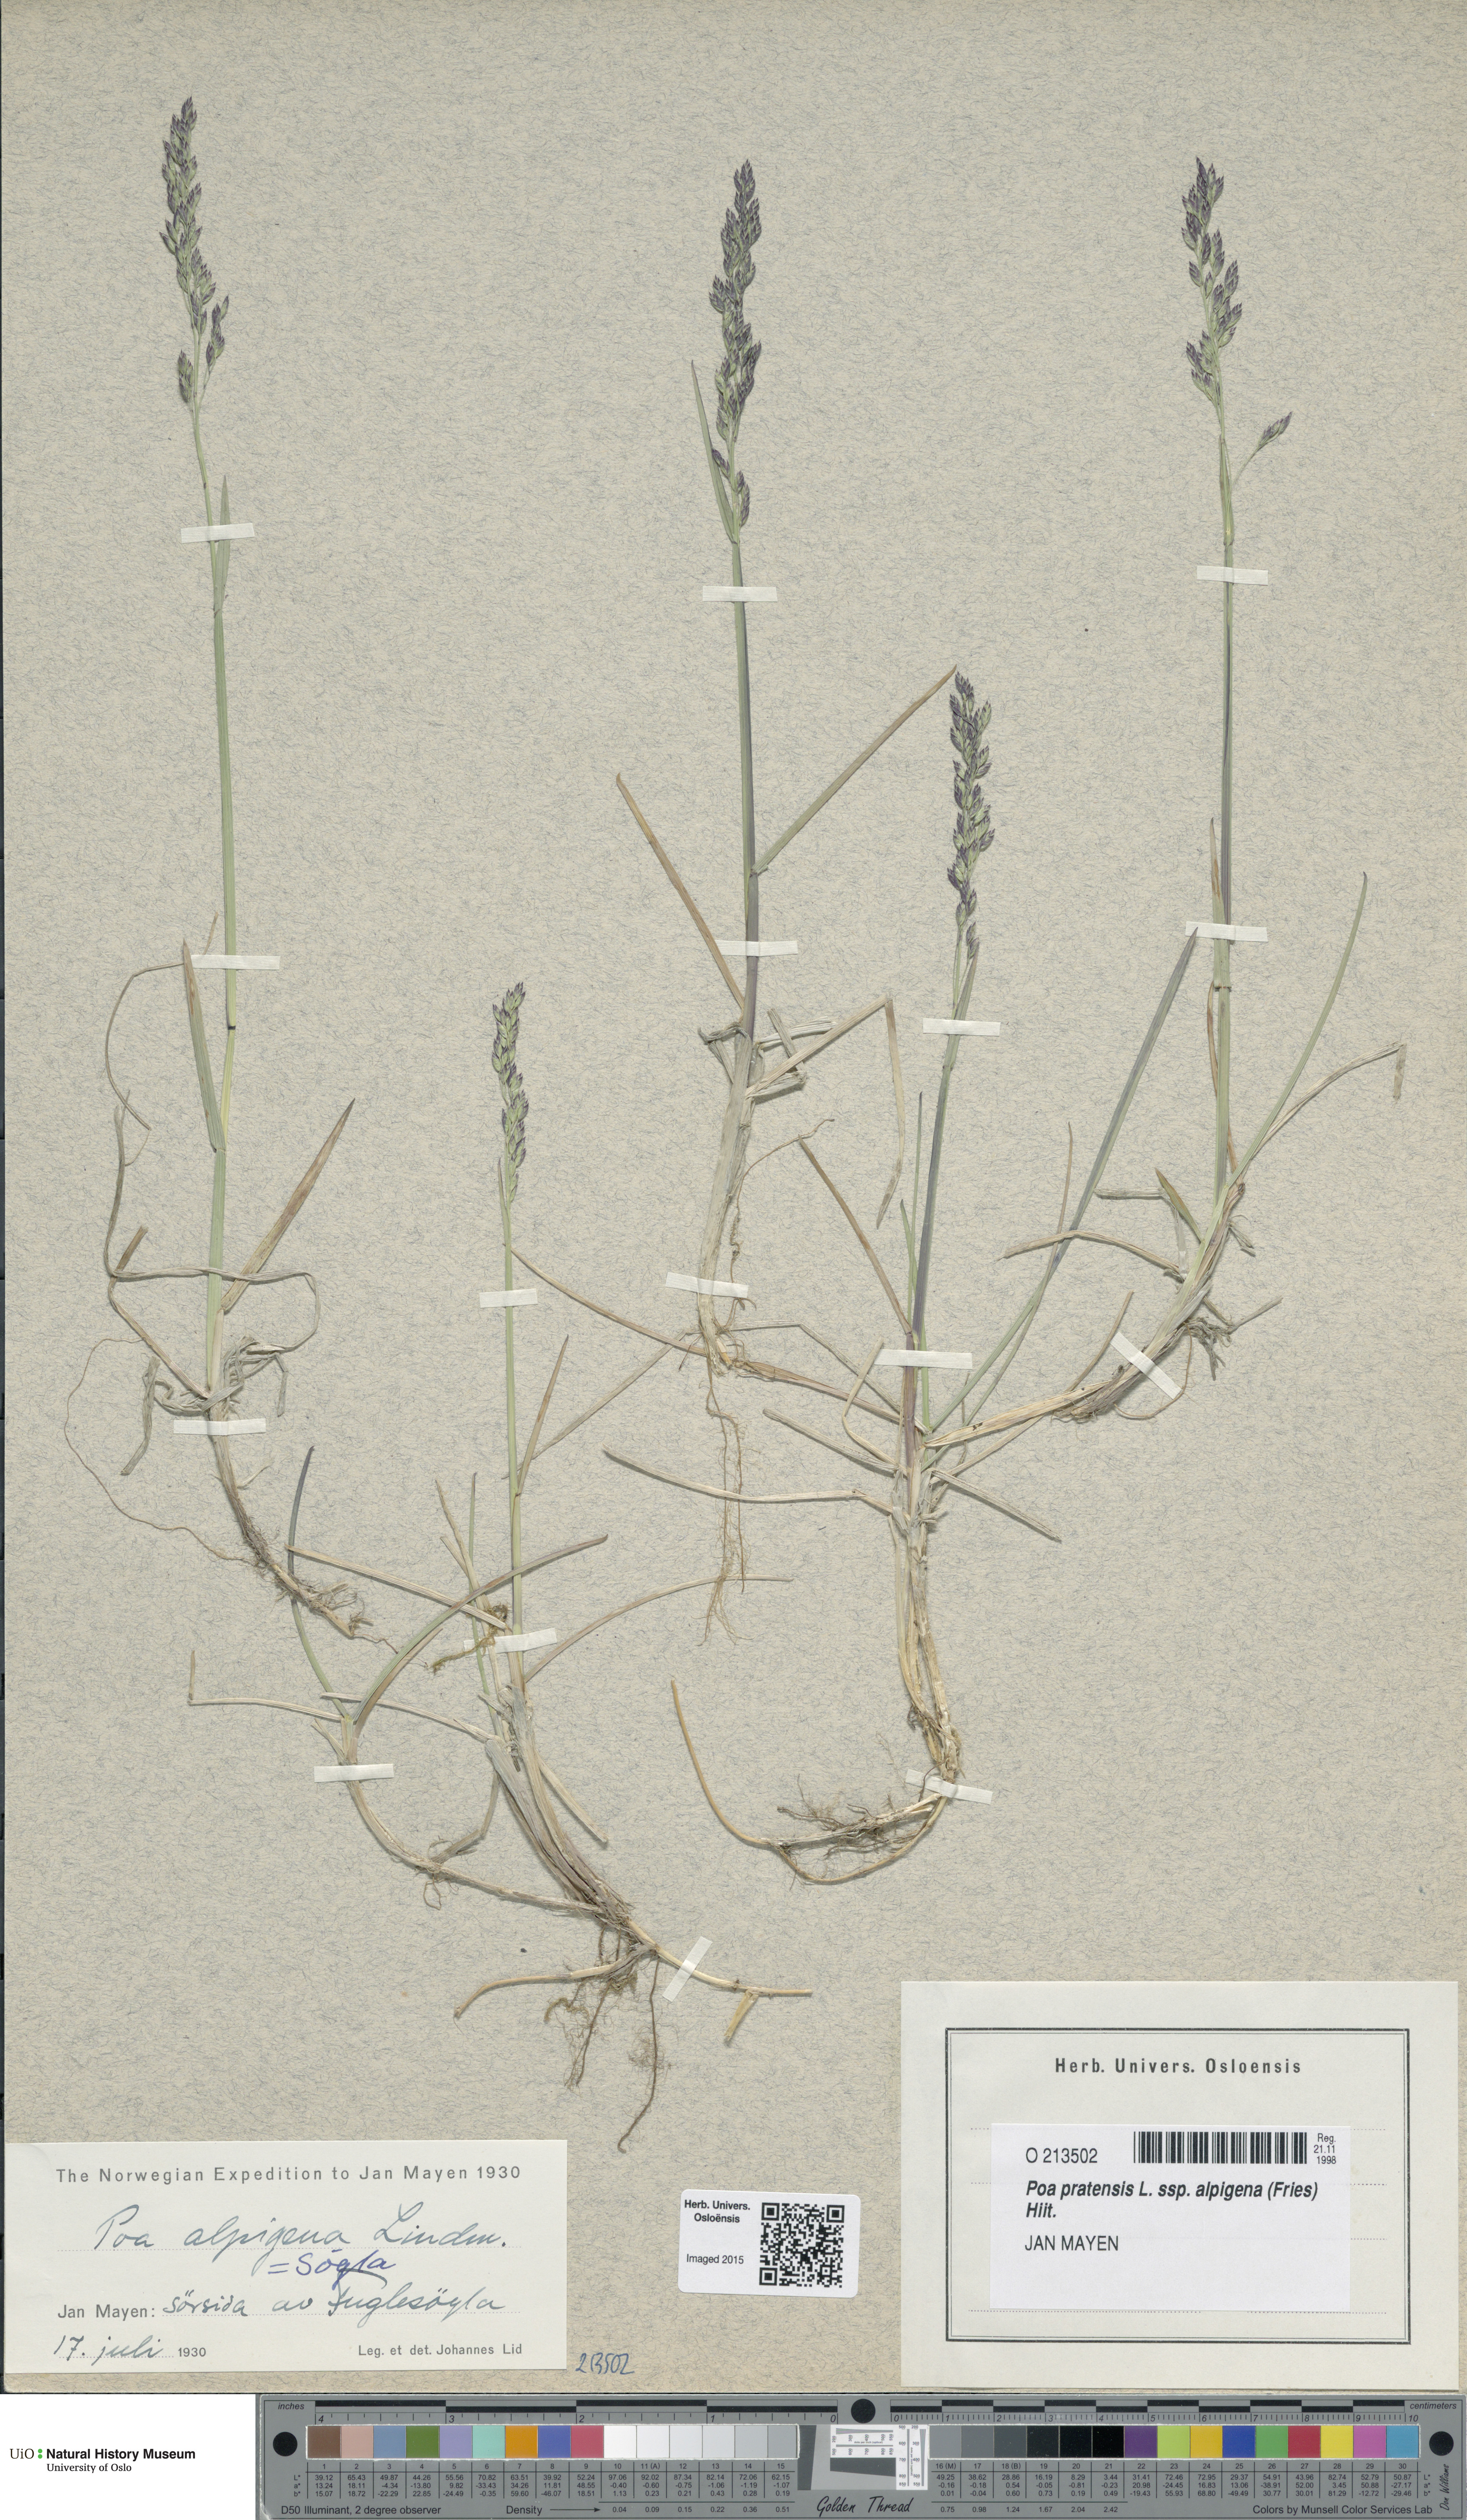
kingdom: Plantae
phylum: Tracheophyta
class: Liliopsida
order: Poales
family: Poaceae
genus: Poa
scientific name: Poa alpigena
